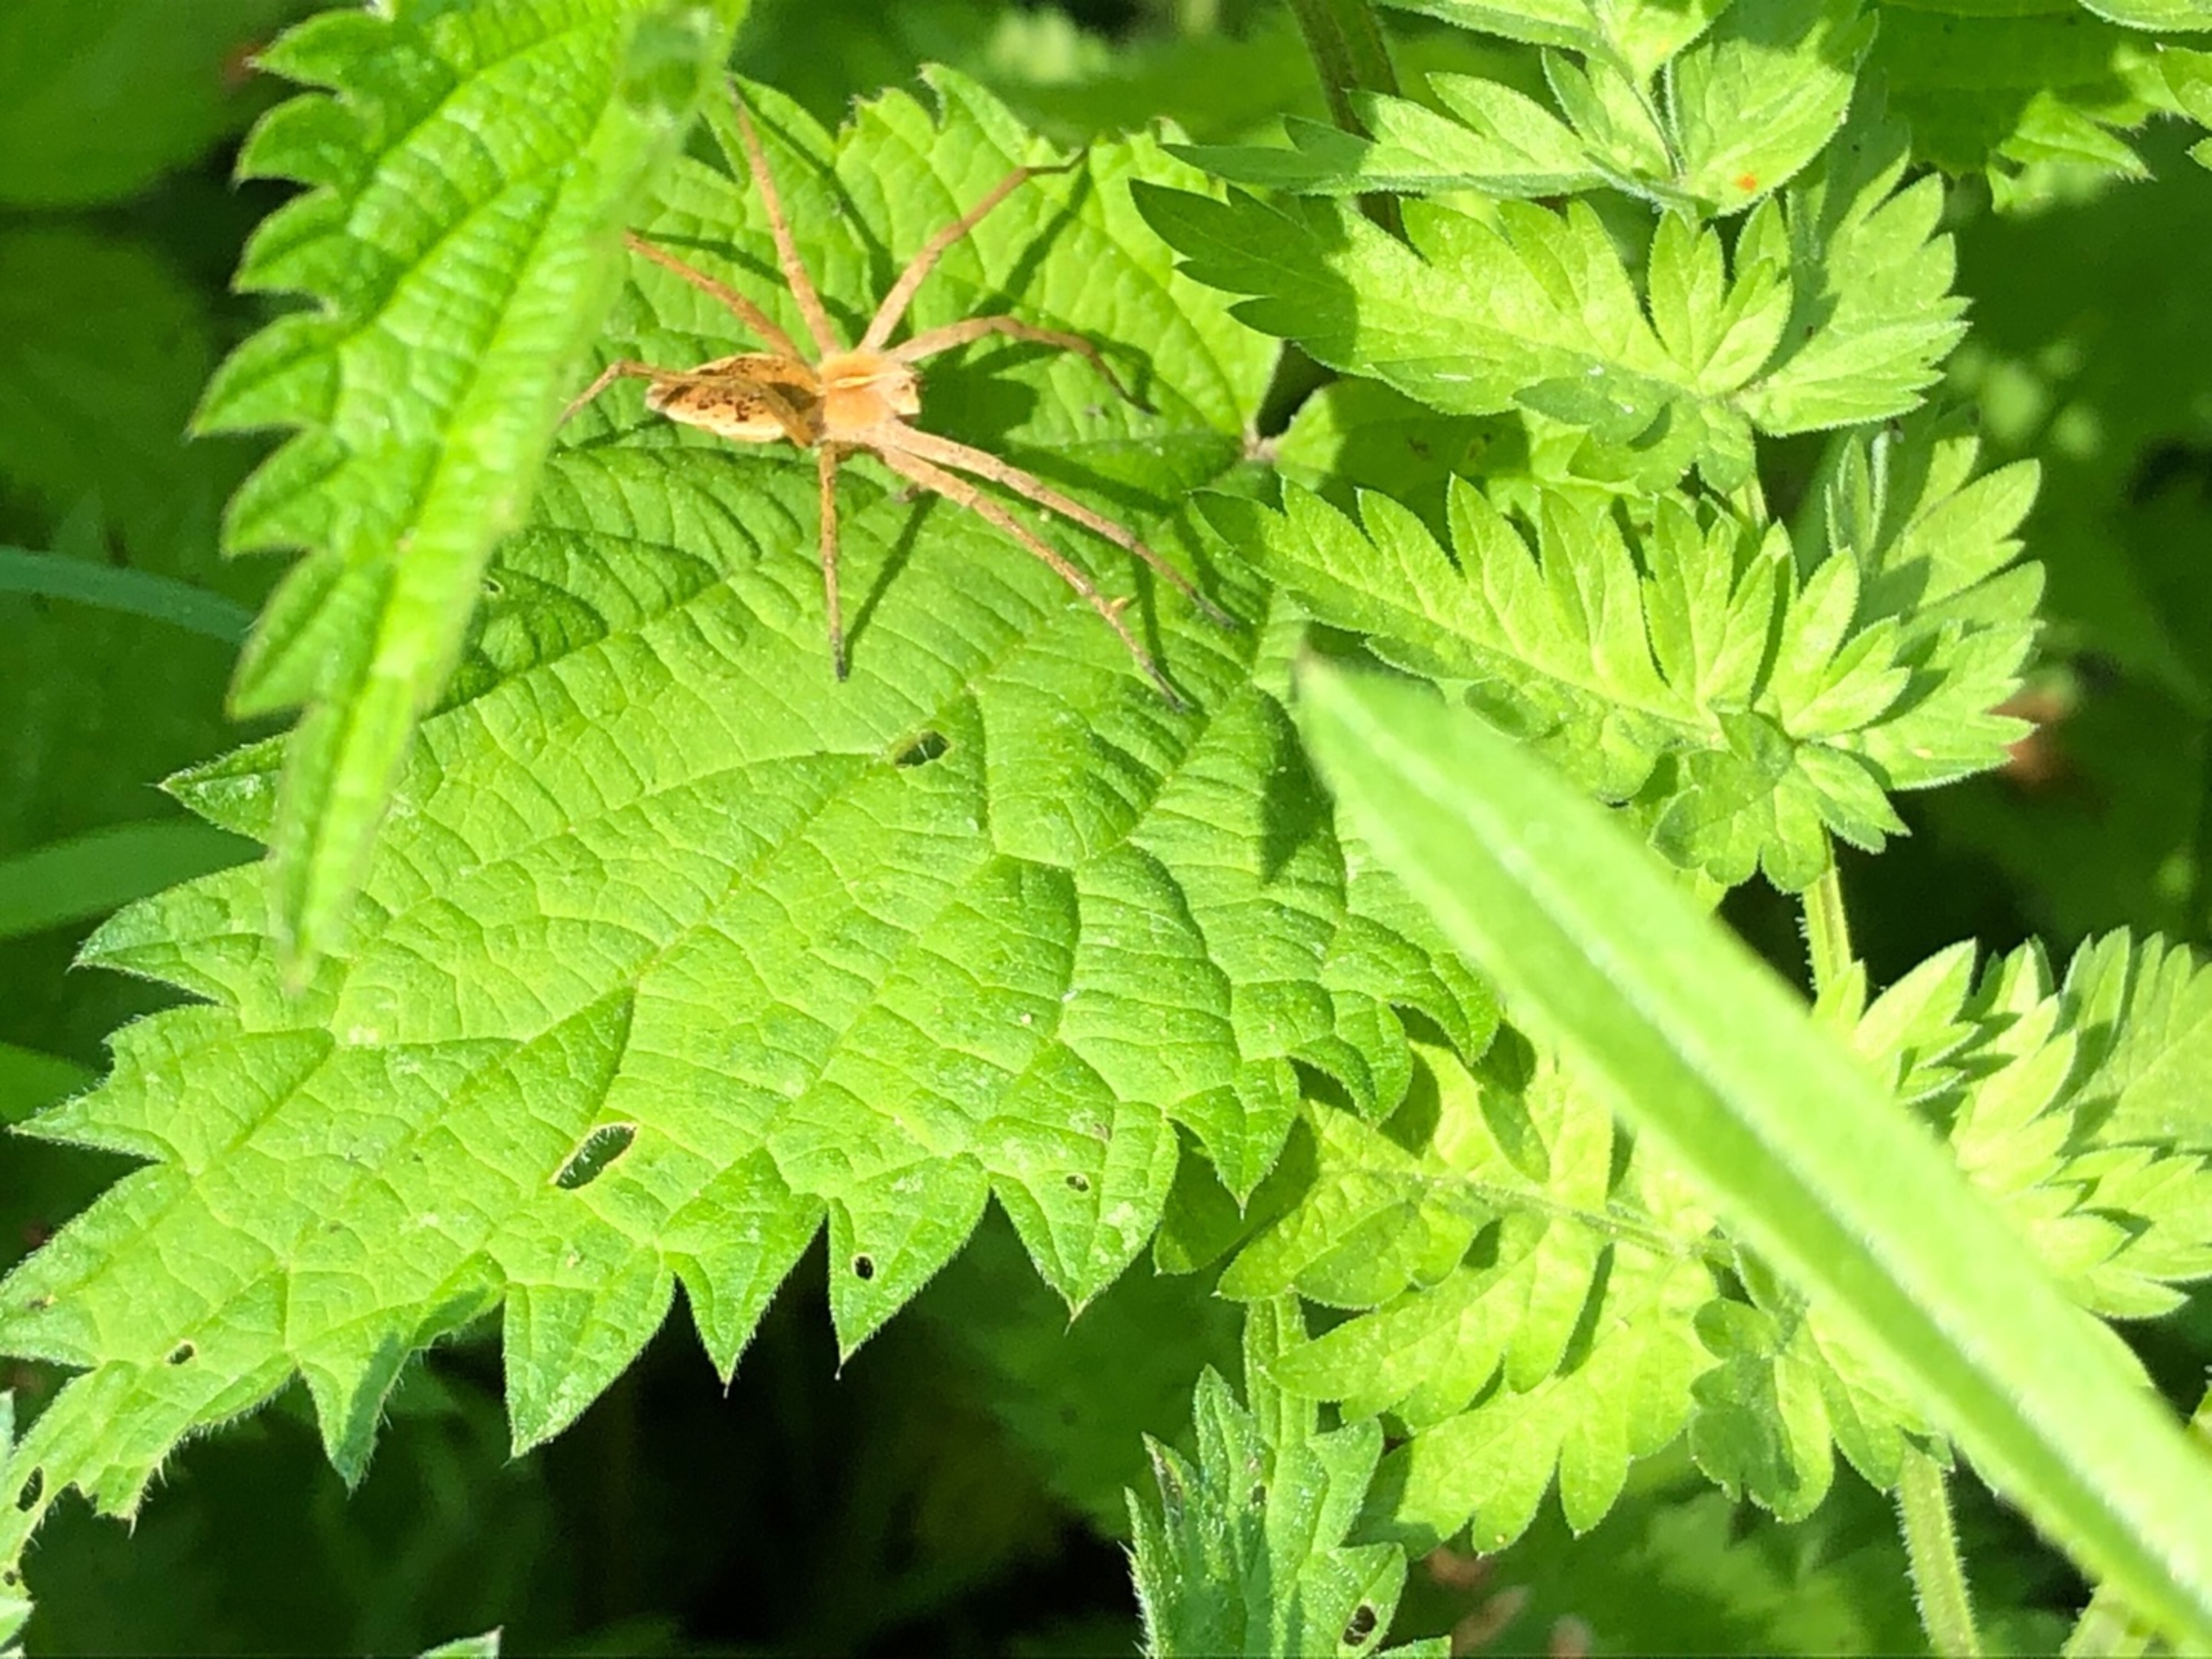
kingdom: Animalia
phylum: Arthropoda
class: Arachnida
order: Araneae
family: Pisauridae
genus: Pisaura
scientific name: Pisaura mirabilis
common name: Almindelig rovedderkop
